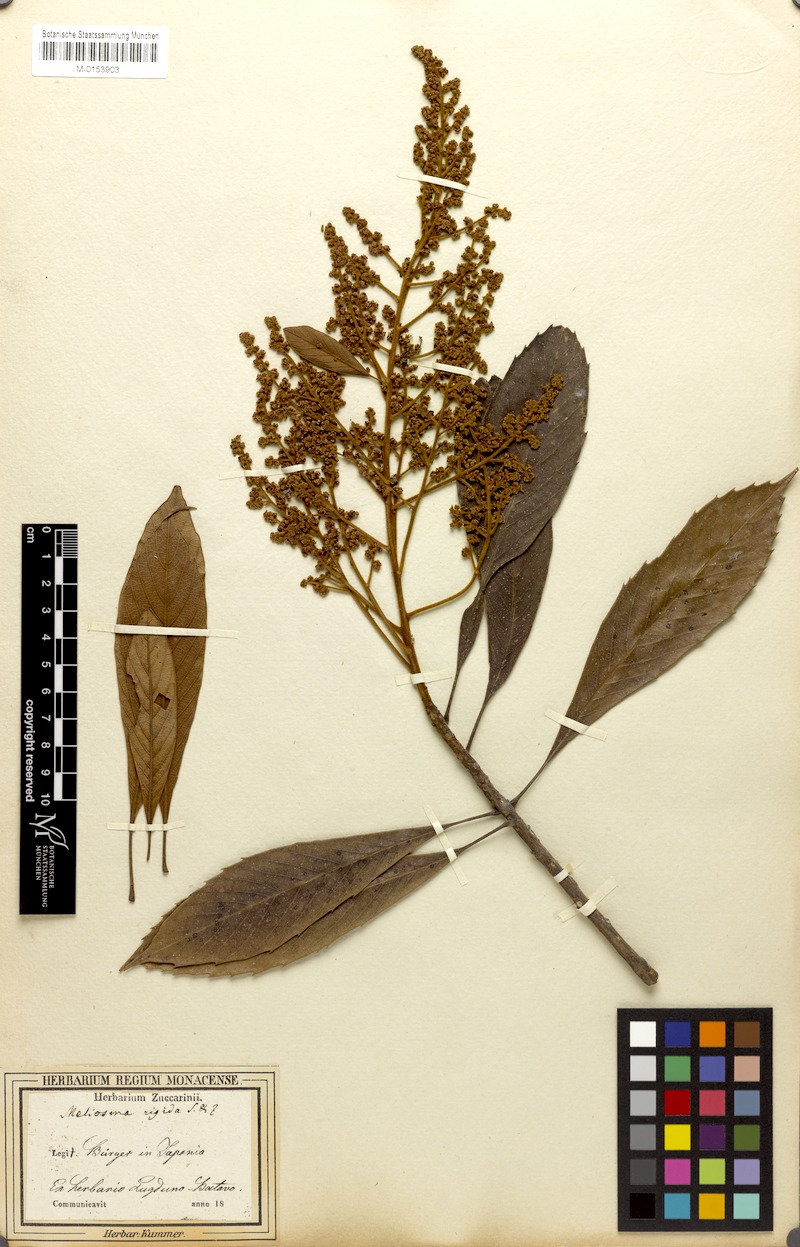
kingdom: Plantae
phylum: Tracheophyta
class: Magnoliopsida
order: Proteales
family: Sabiaceae
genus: Meliosma
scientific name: Meliosma rigida
